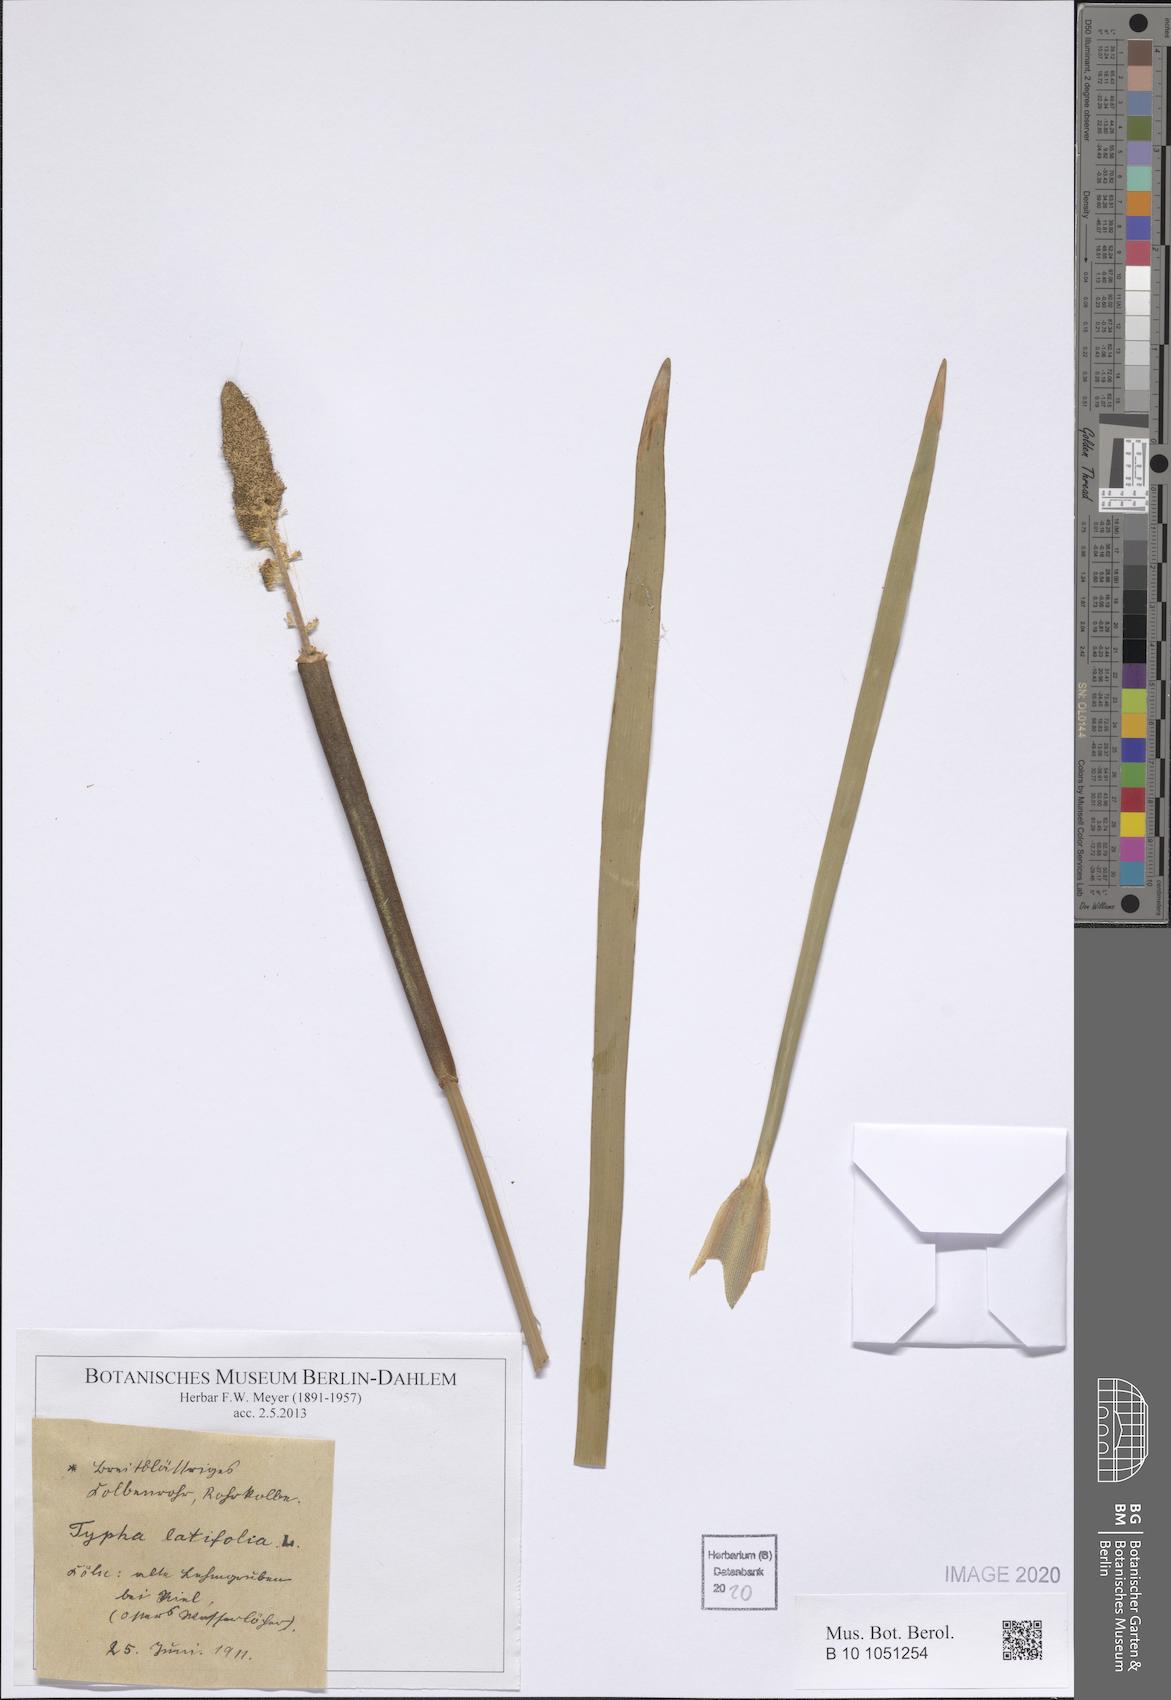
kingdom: Plantae
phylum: Tracheophyta
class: Liliopsida
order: Poales
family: Typhaceae
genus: Typha
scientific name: Typha latifolia
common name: Broadleaf cattail
